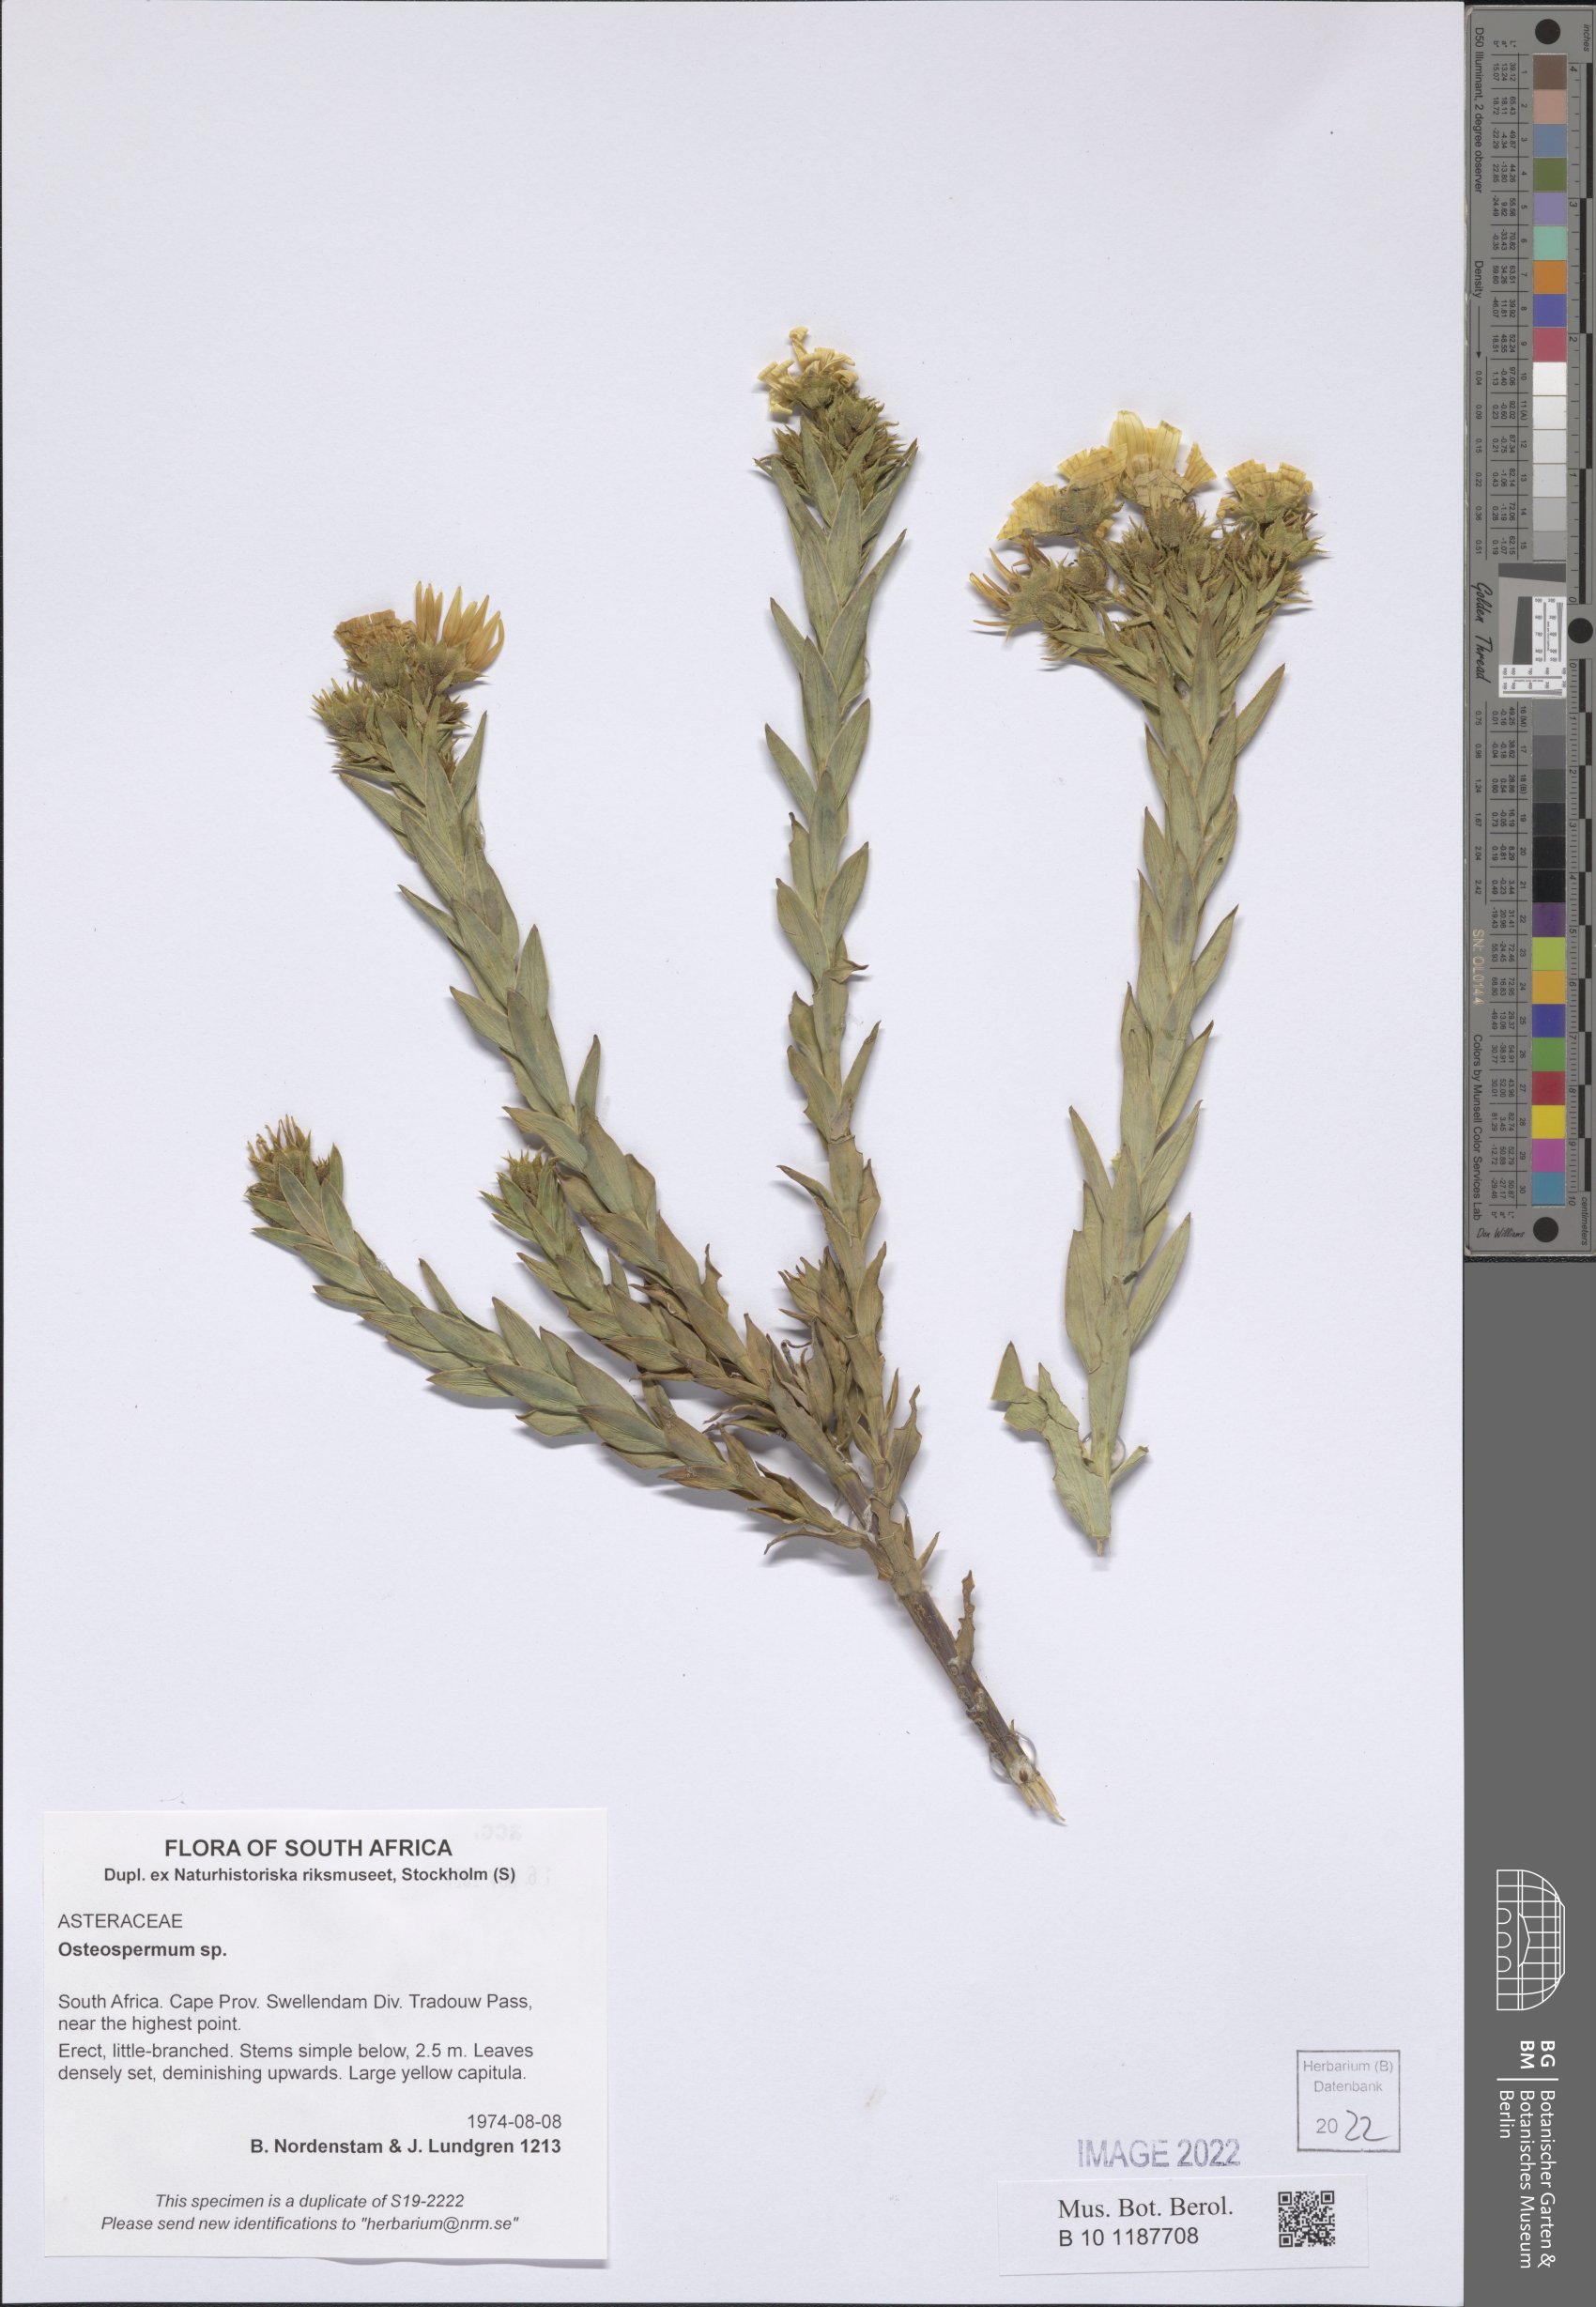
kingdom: Plantae
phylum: Tracheophyta
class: Magnoliopsida
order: Asterales
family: Asteraceae
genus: Osteospermum
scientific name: Osteospermum
